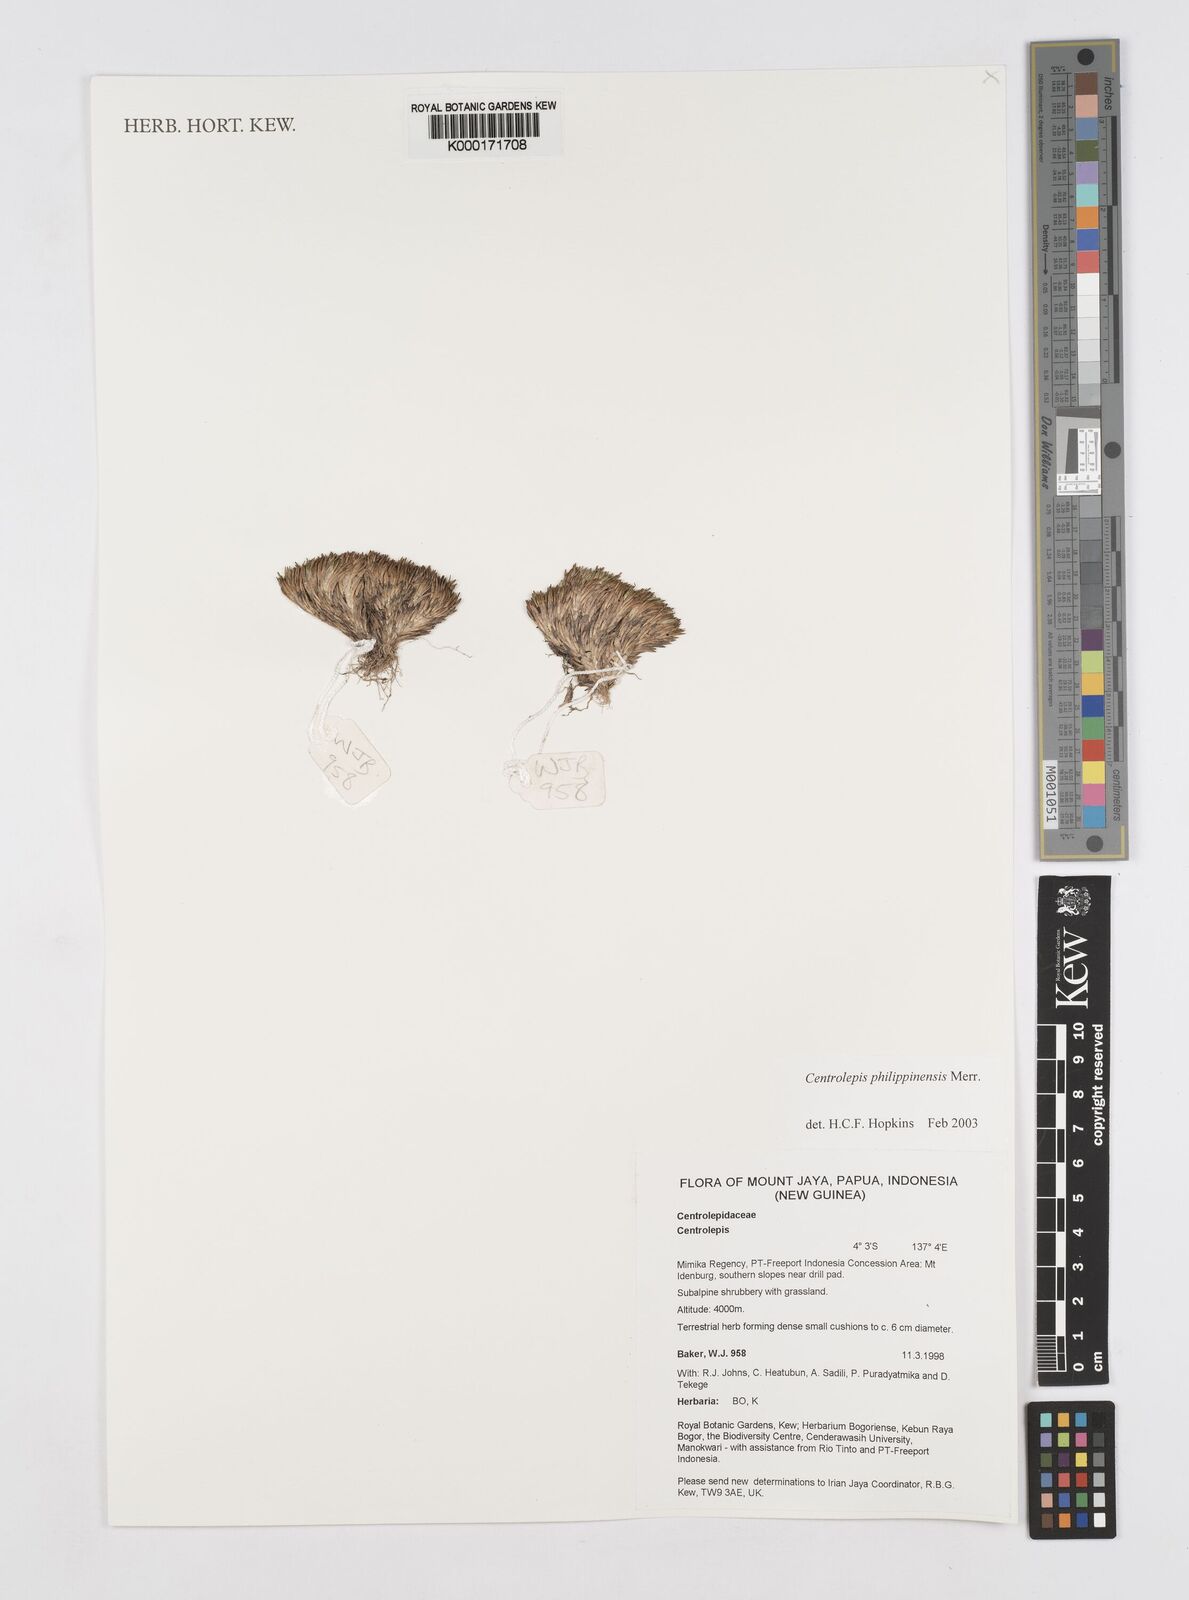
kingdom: Plantae
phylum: Tracheophyta
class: Liliopsida
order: Poales
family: Restionaceae
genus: Centrolepis
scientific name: Centrolepis philippinensis
